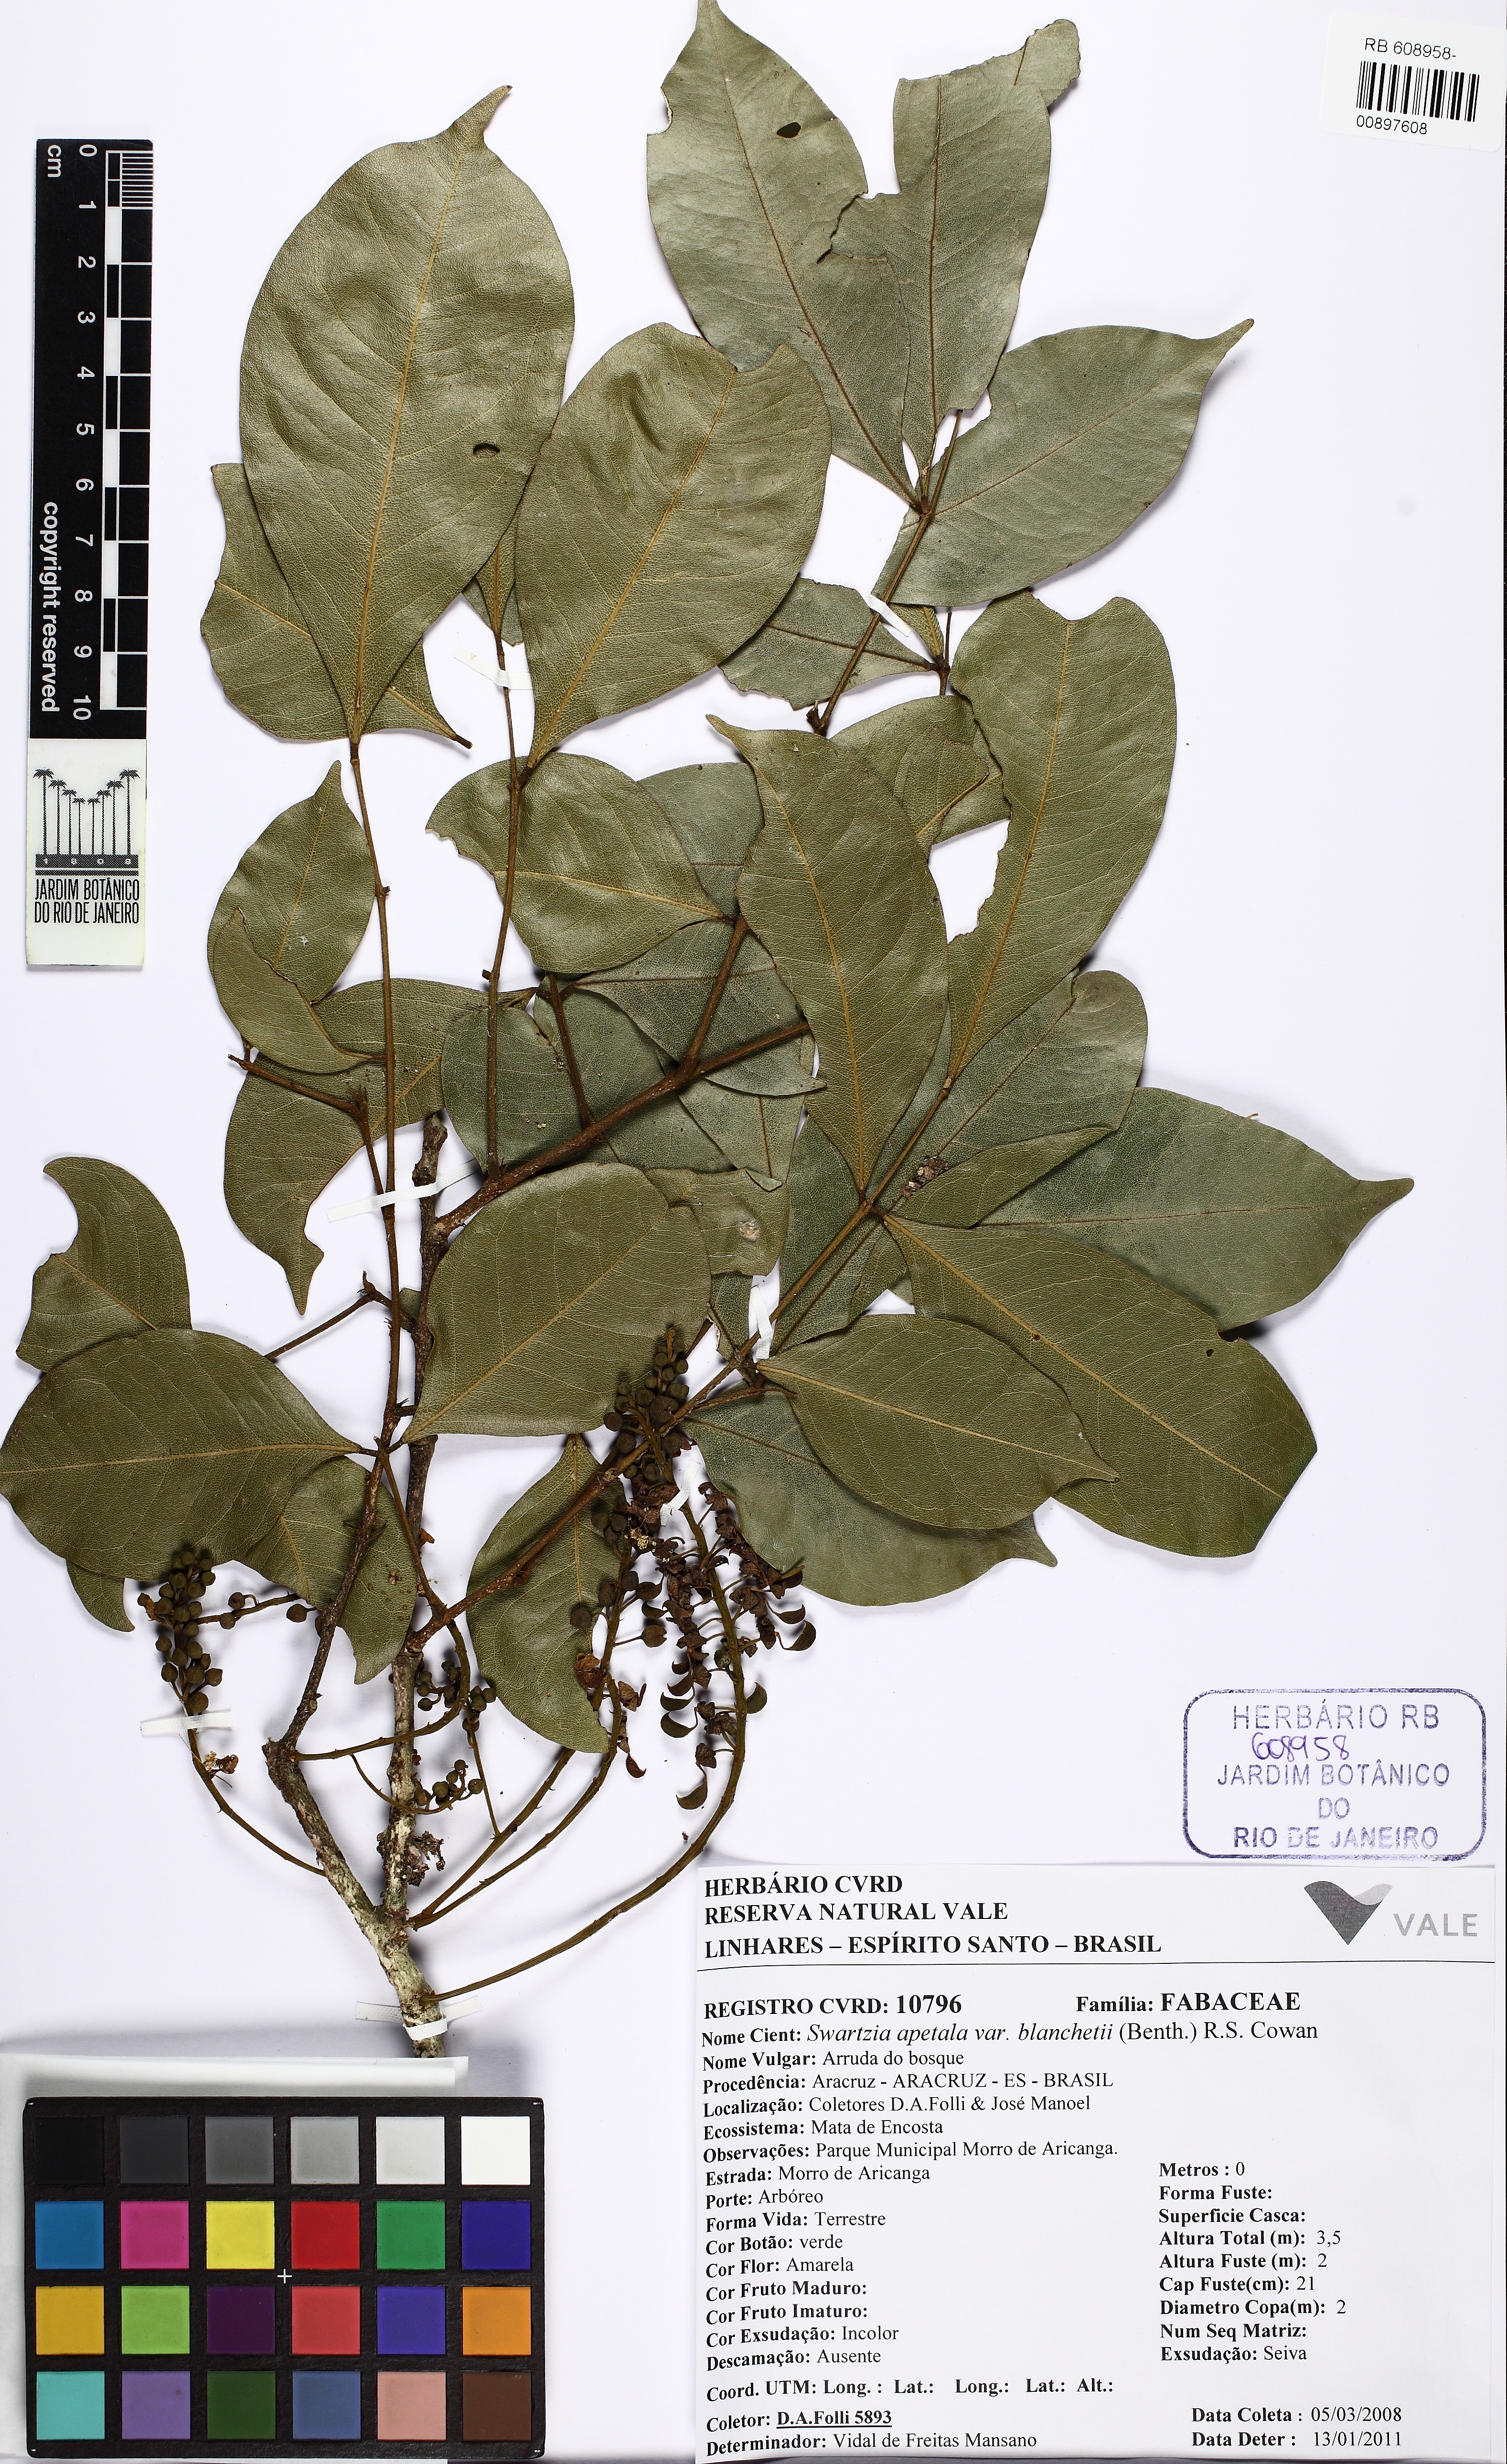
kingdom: Plantae
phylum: Tracheophyta
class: Magnoliopsida
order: Fabales
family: Fabaceae
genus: Swartzia
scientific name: Swartzia apetala
